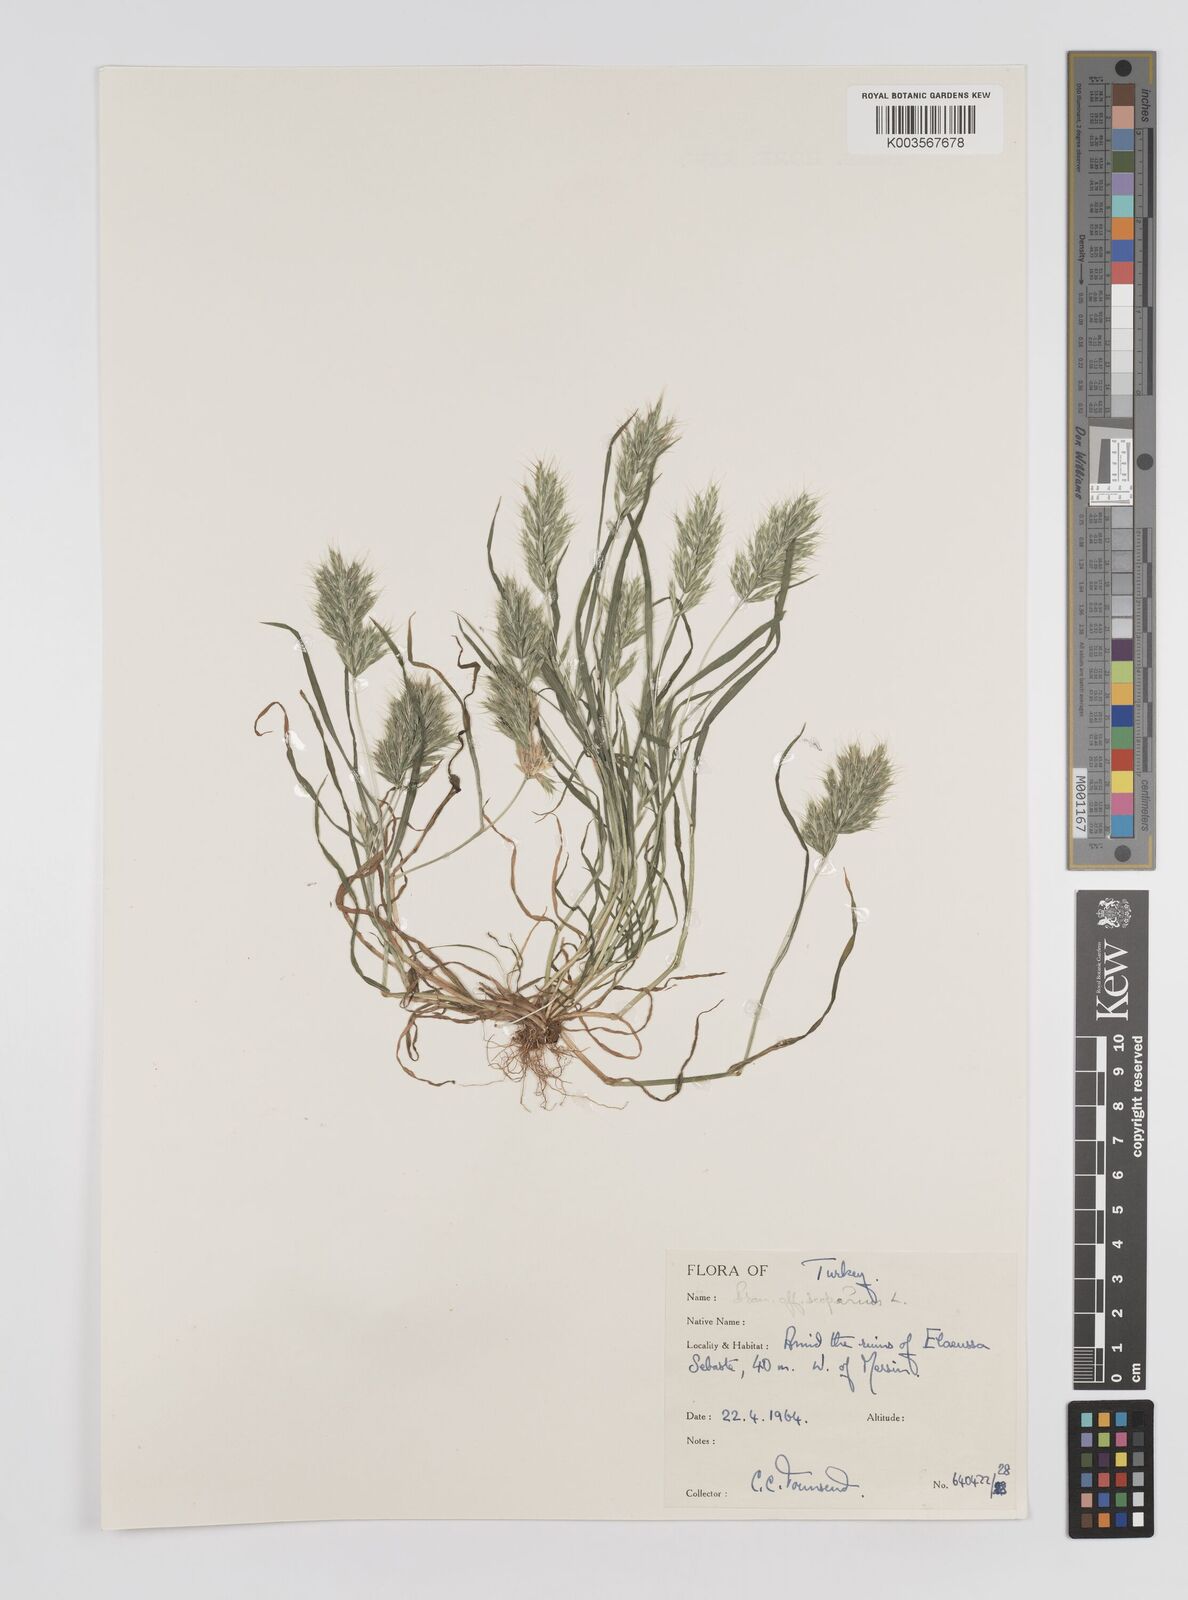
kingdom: Plantae
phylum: Tracheophyta
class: Liliopsida
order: Poales
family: Poaceae
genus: Bromus
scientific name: Bromus
